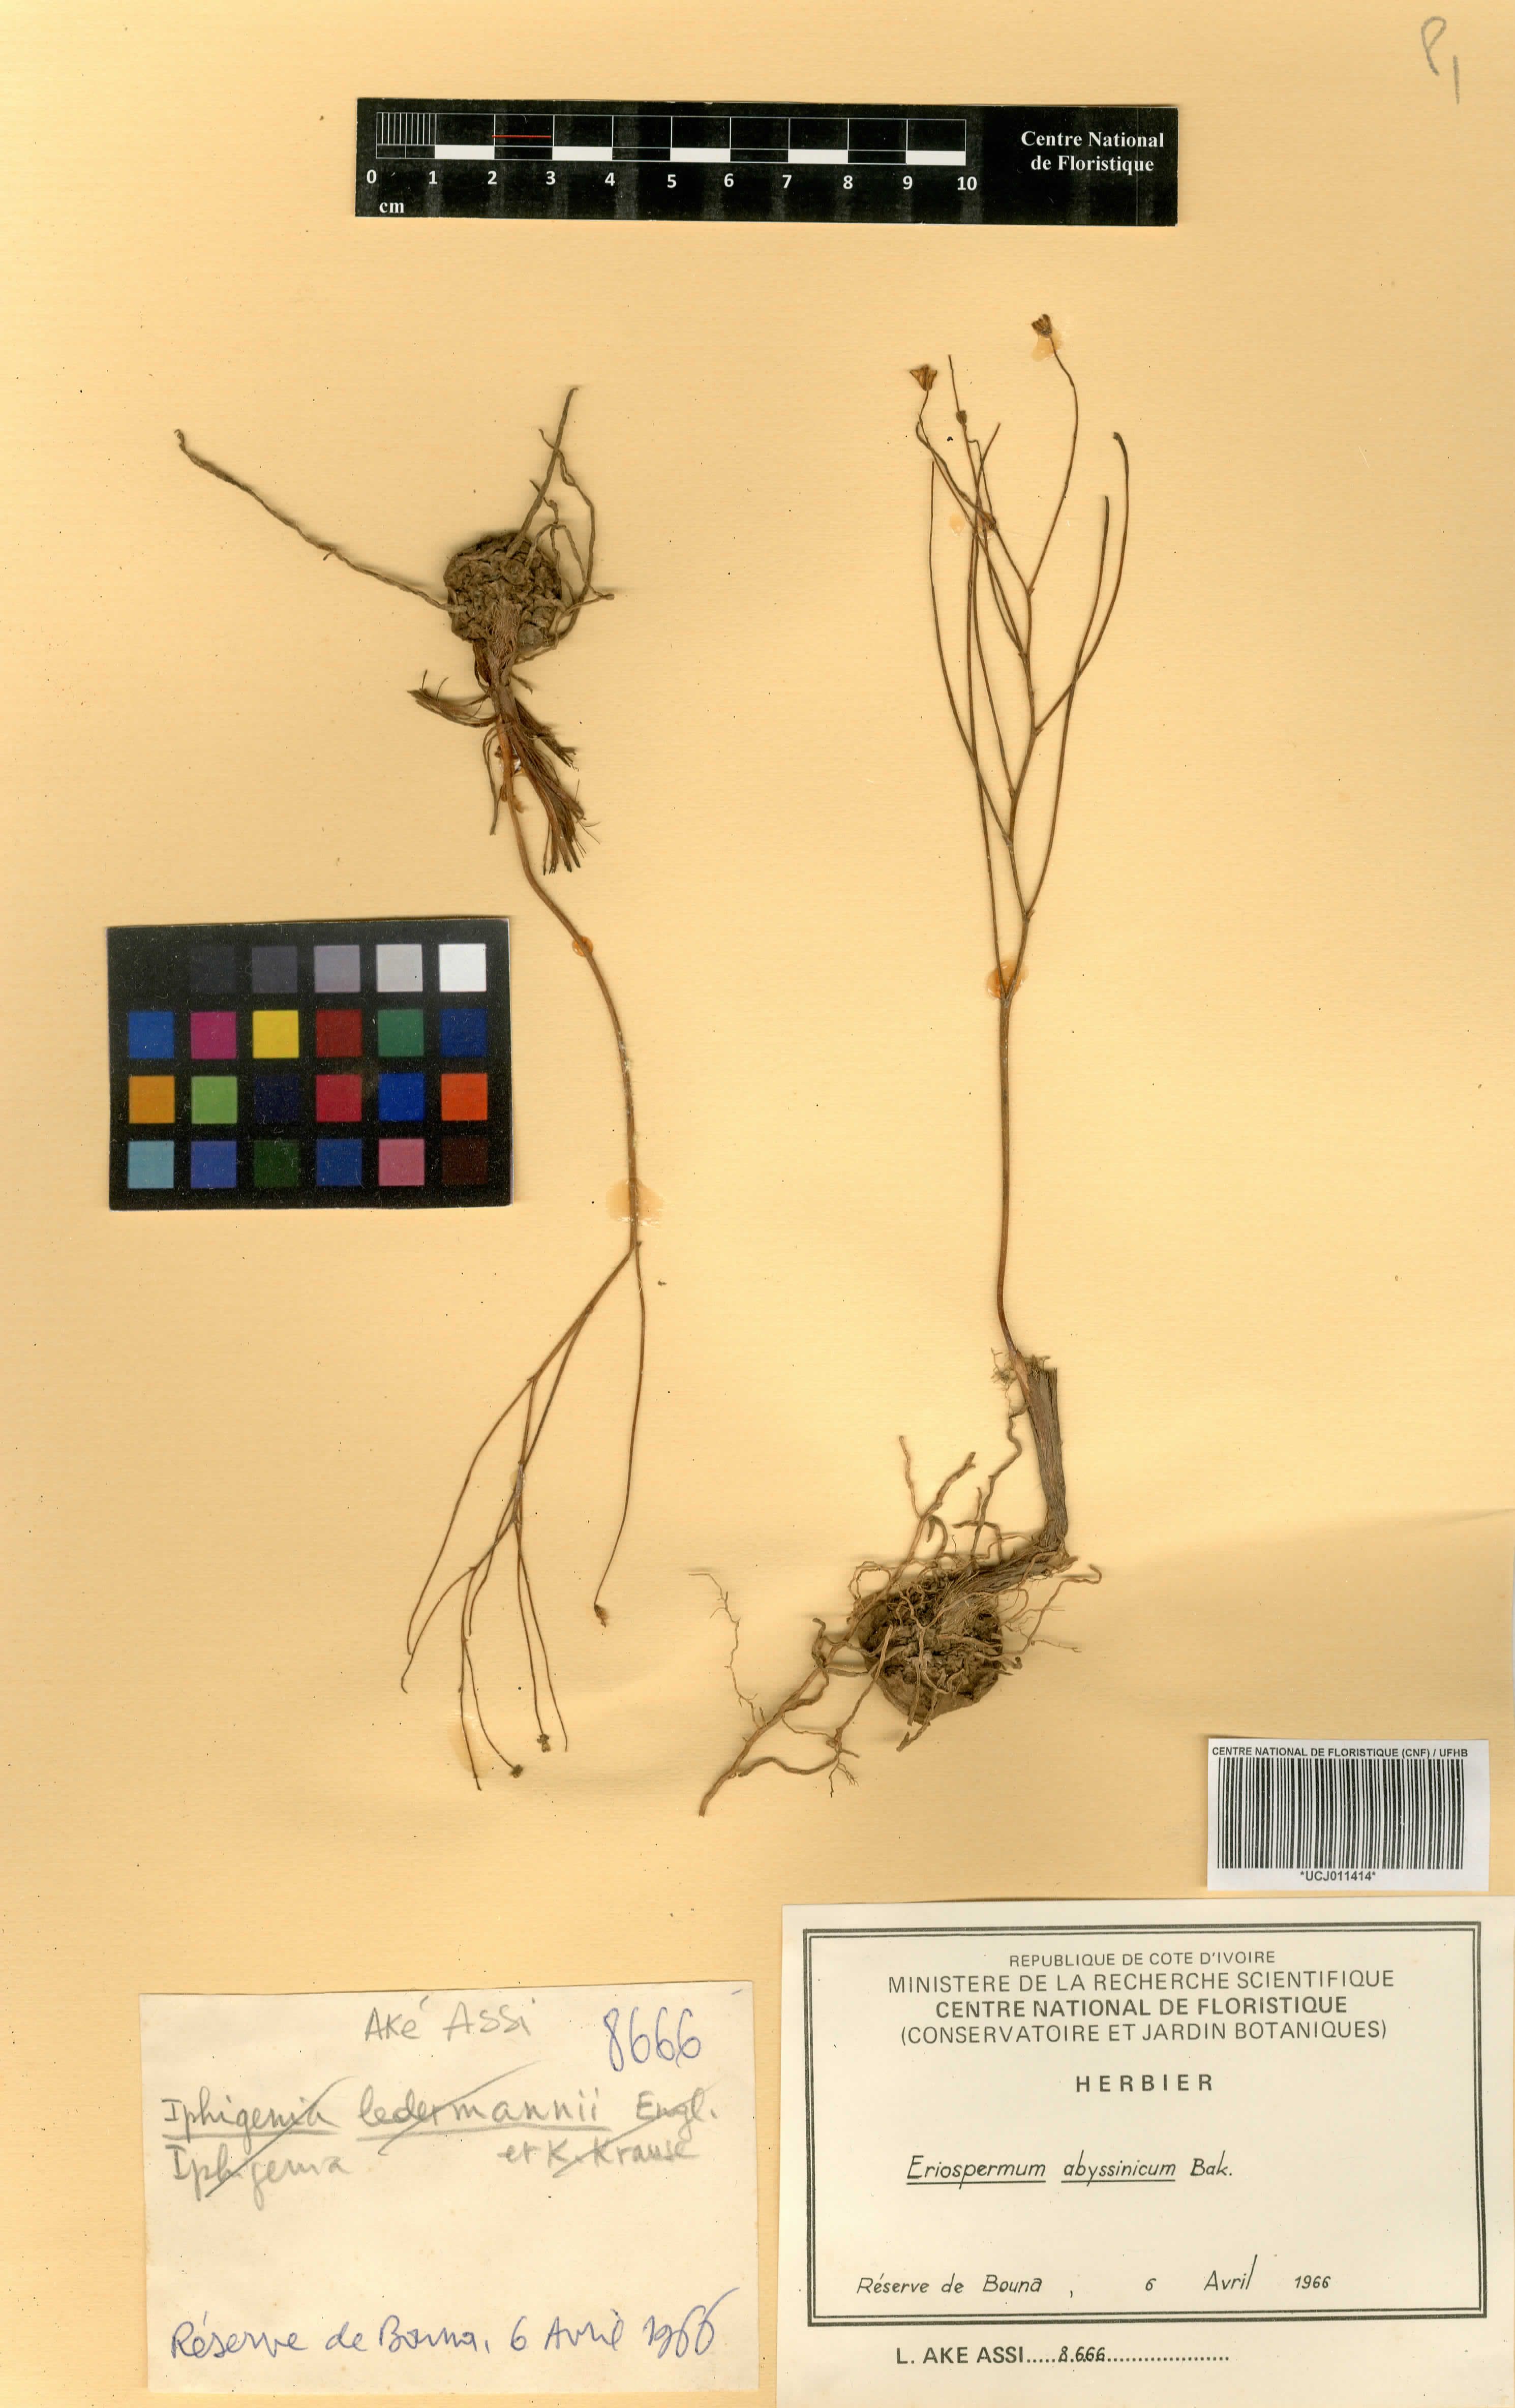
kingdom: Plantae
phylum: Tracheophyta
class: Liliopsida
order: Asparagales
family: Asparagaceae
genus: Eriospermum
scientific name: Eriospermum abyssinicum
